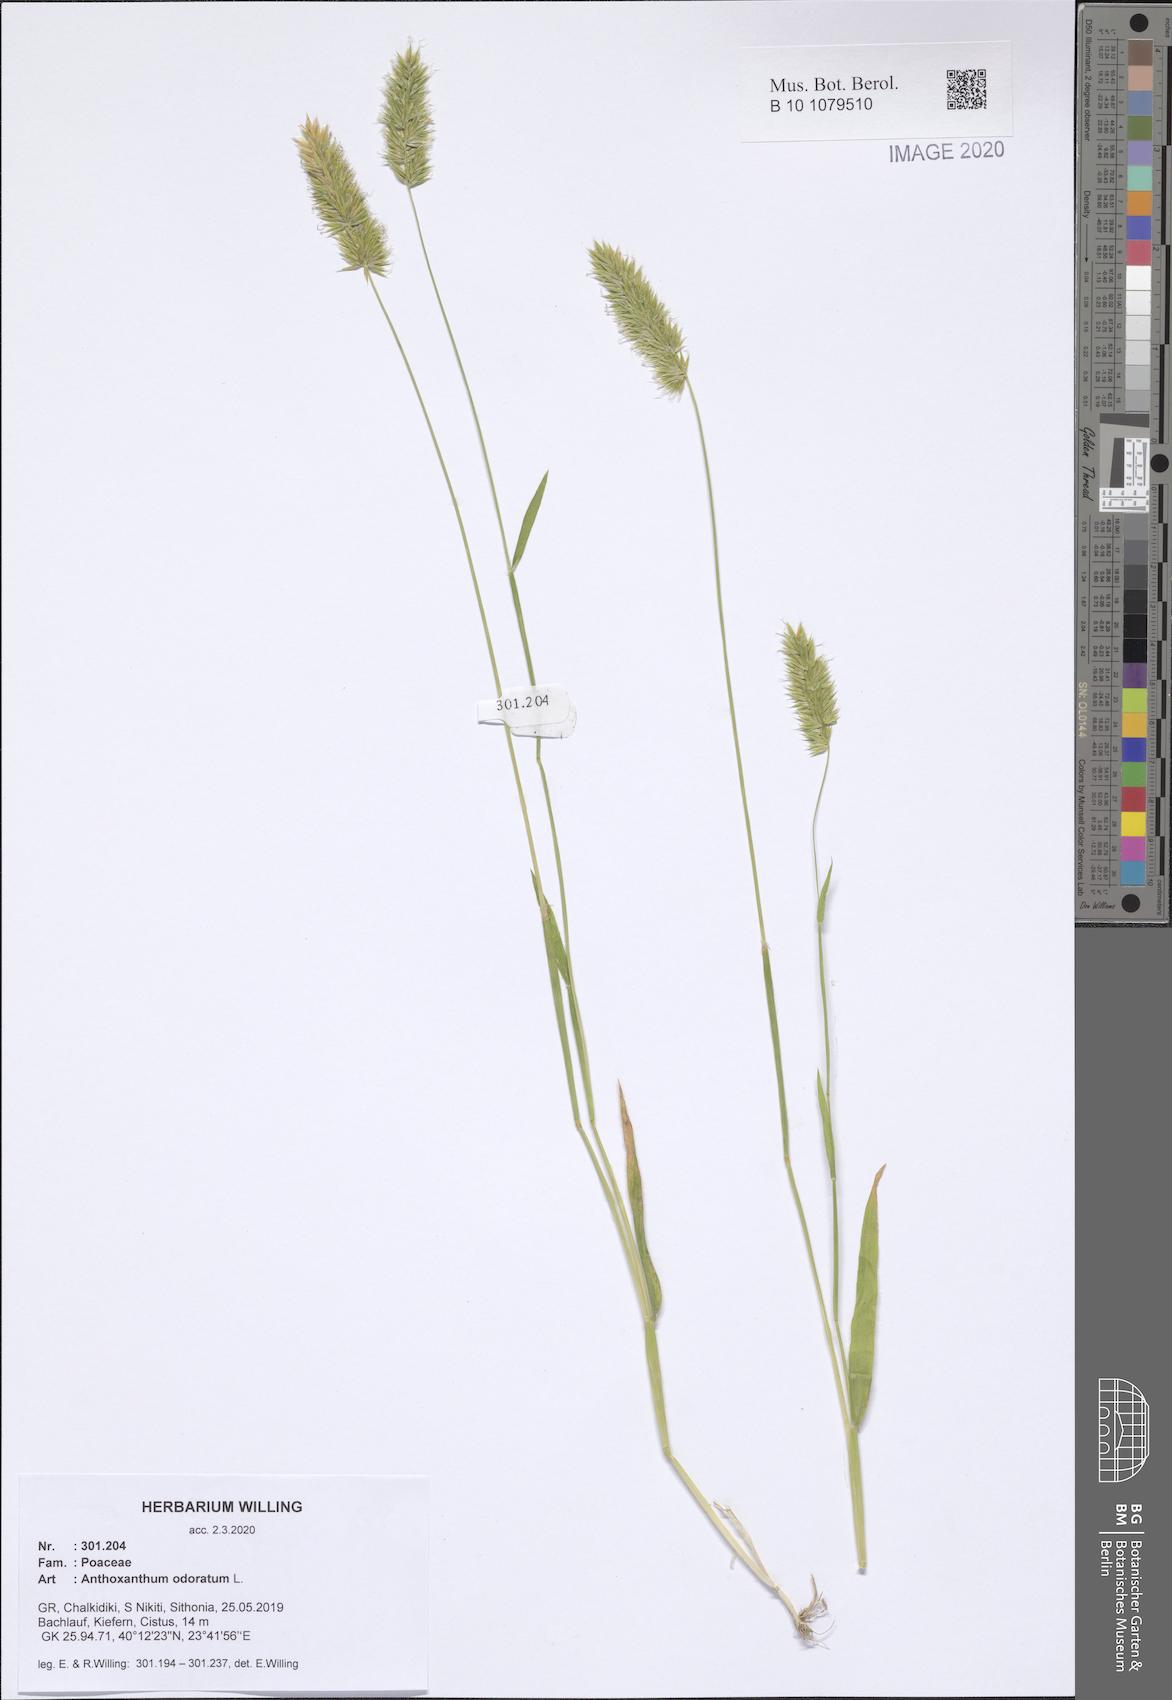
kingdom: Plantae
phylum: Tracheophyta
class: Liliopsida
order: Poales
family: Poaceae
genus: Anthoxanthum
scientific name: Anthoxanthum odoratum
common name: Sweet vernalgrass
